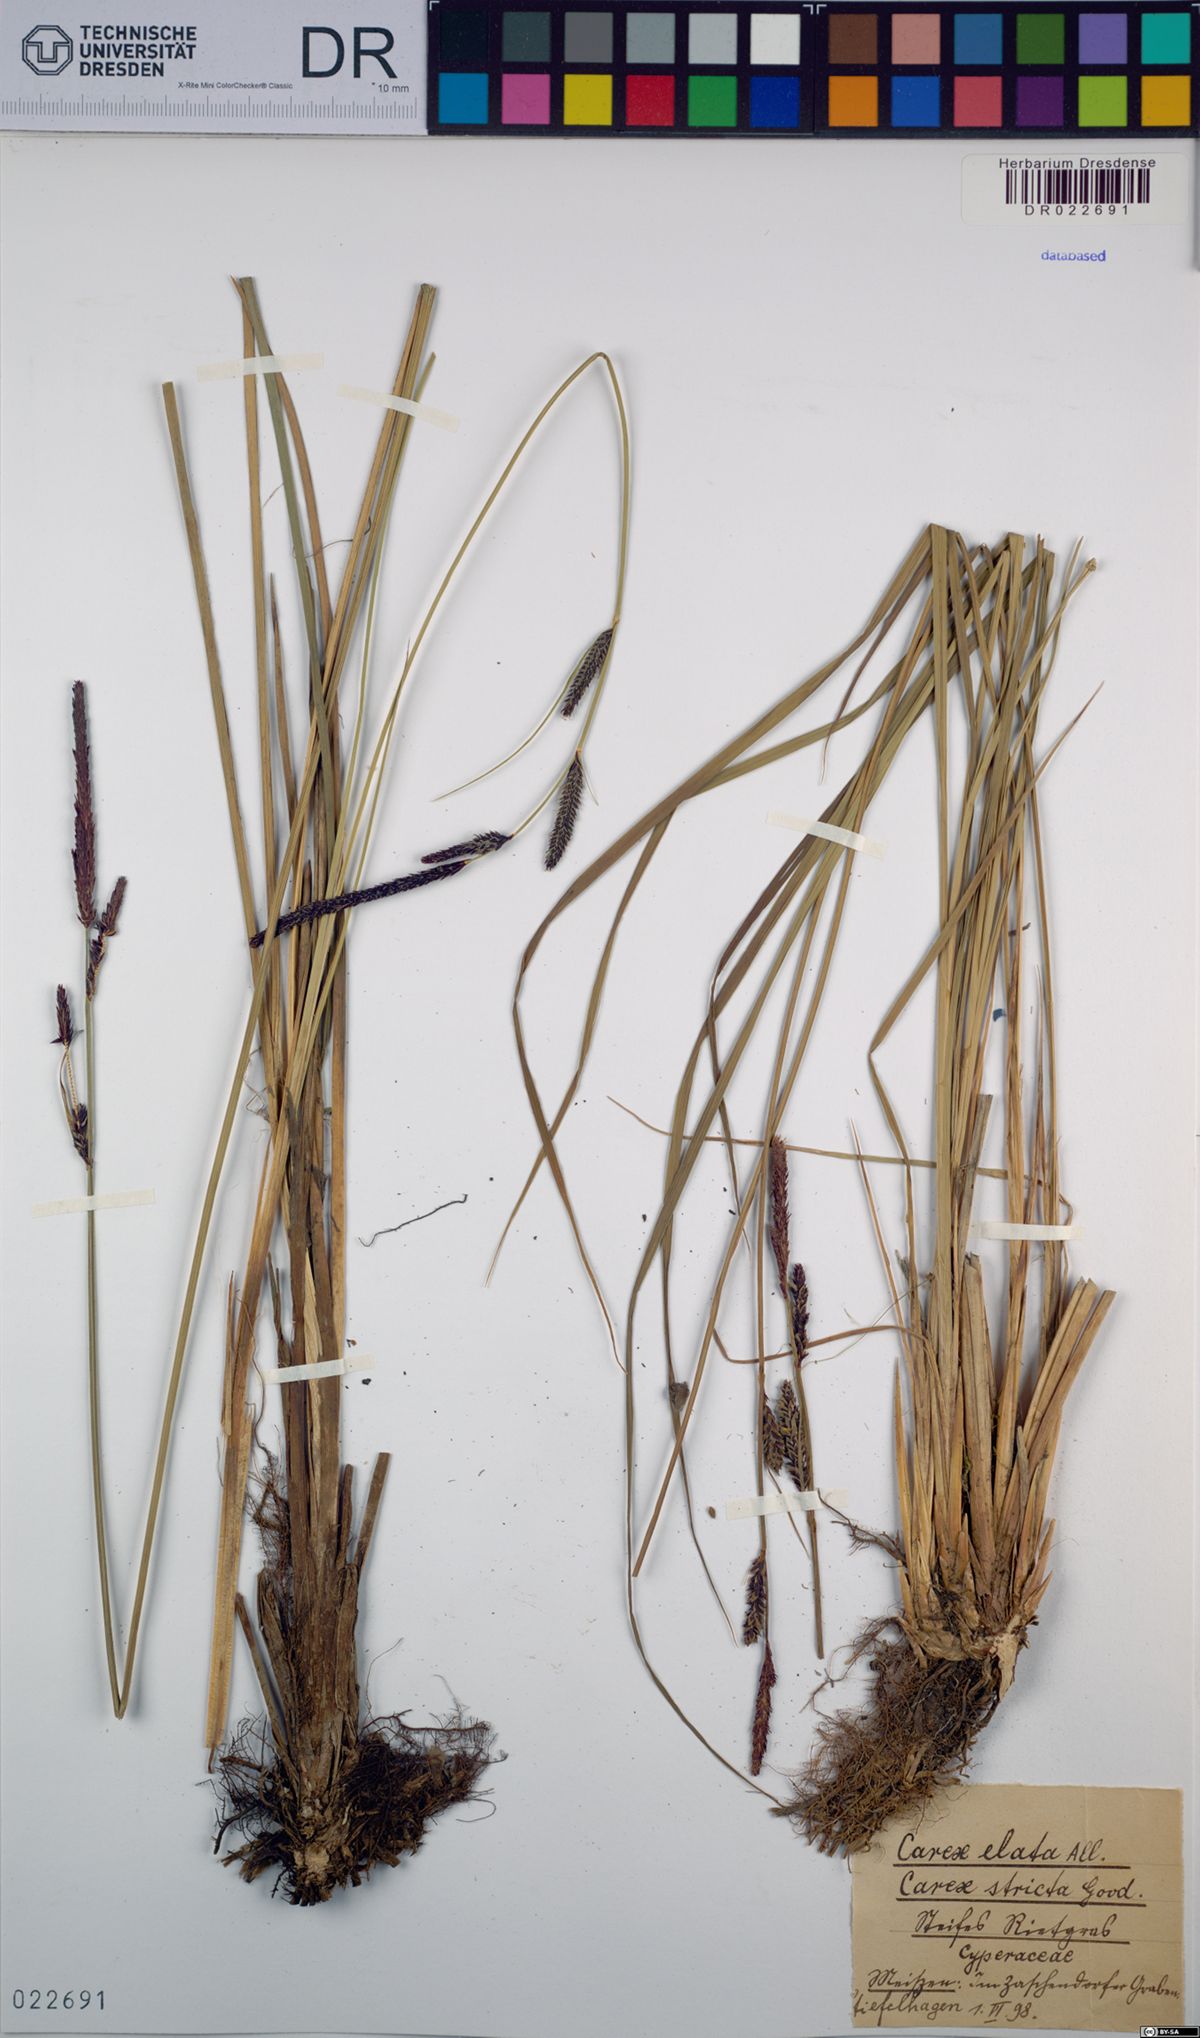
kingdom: Plantae
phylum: Tracheophyta
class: Liliopsida
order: Poales
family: Cyperaceae
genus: Carex
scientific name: Carex elata
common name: Tufted sedge
